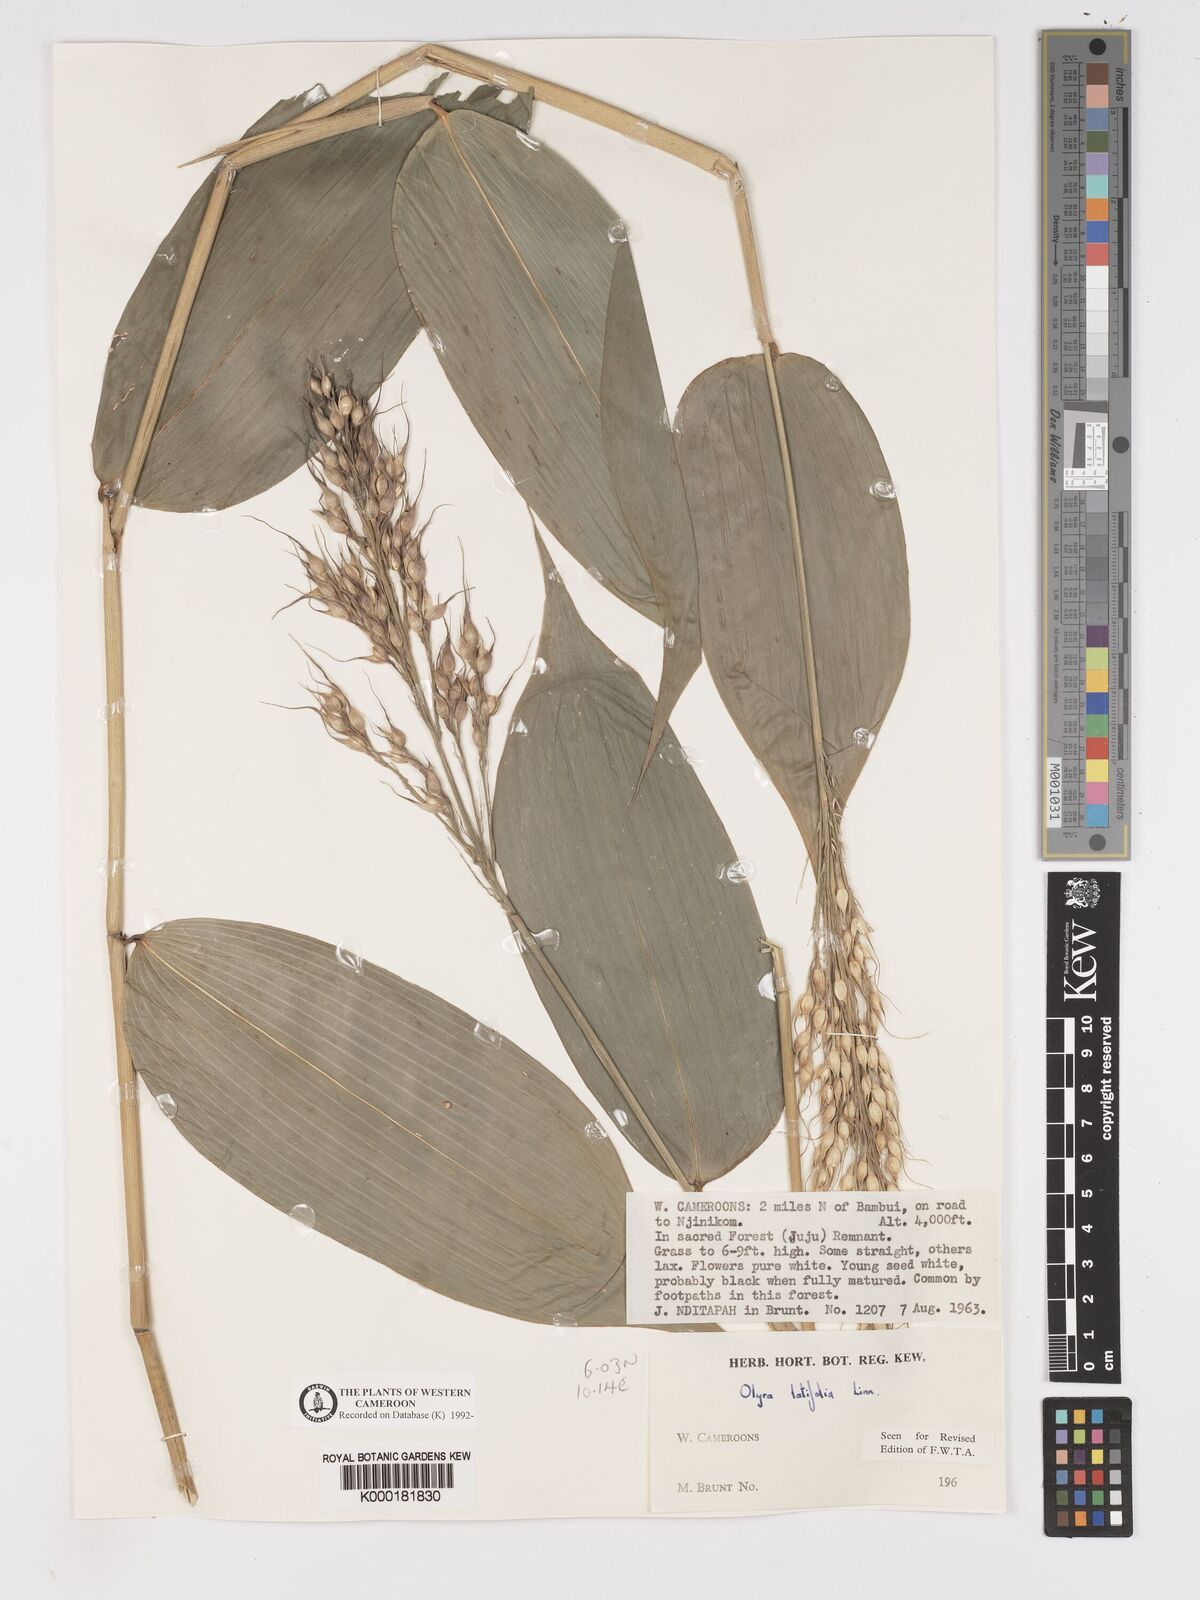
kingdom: Plantae
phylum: Tracheophyta
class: Liliopsida
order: Poales
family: Poaceae
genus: Olyra
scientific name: Olyra latifolia
